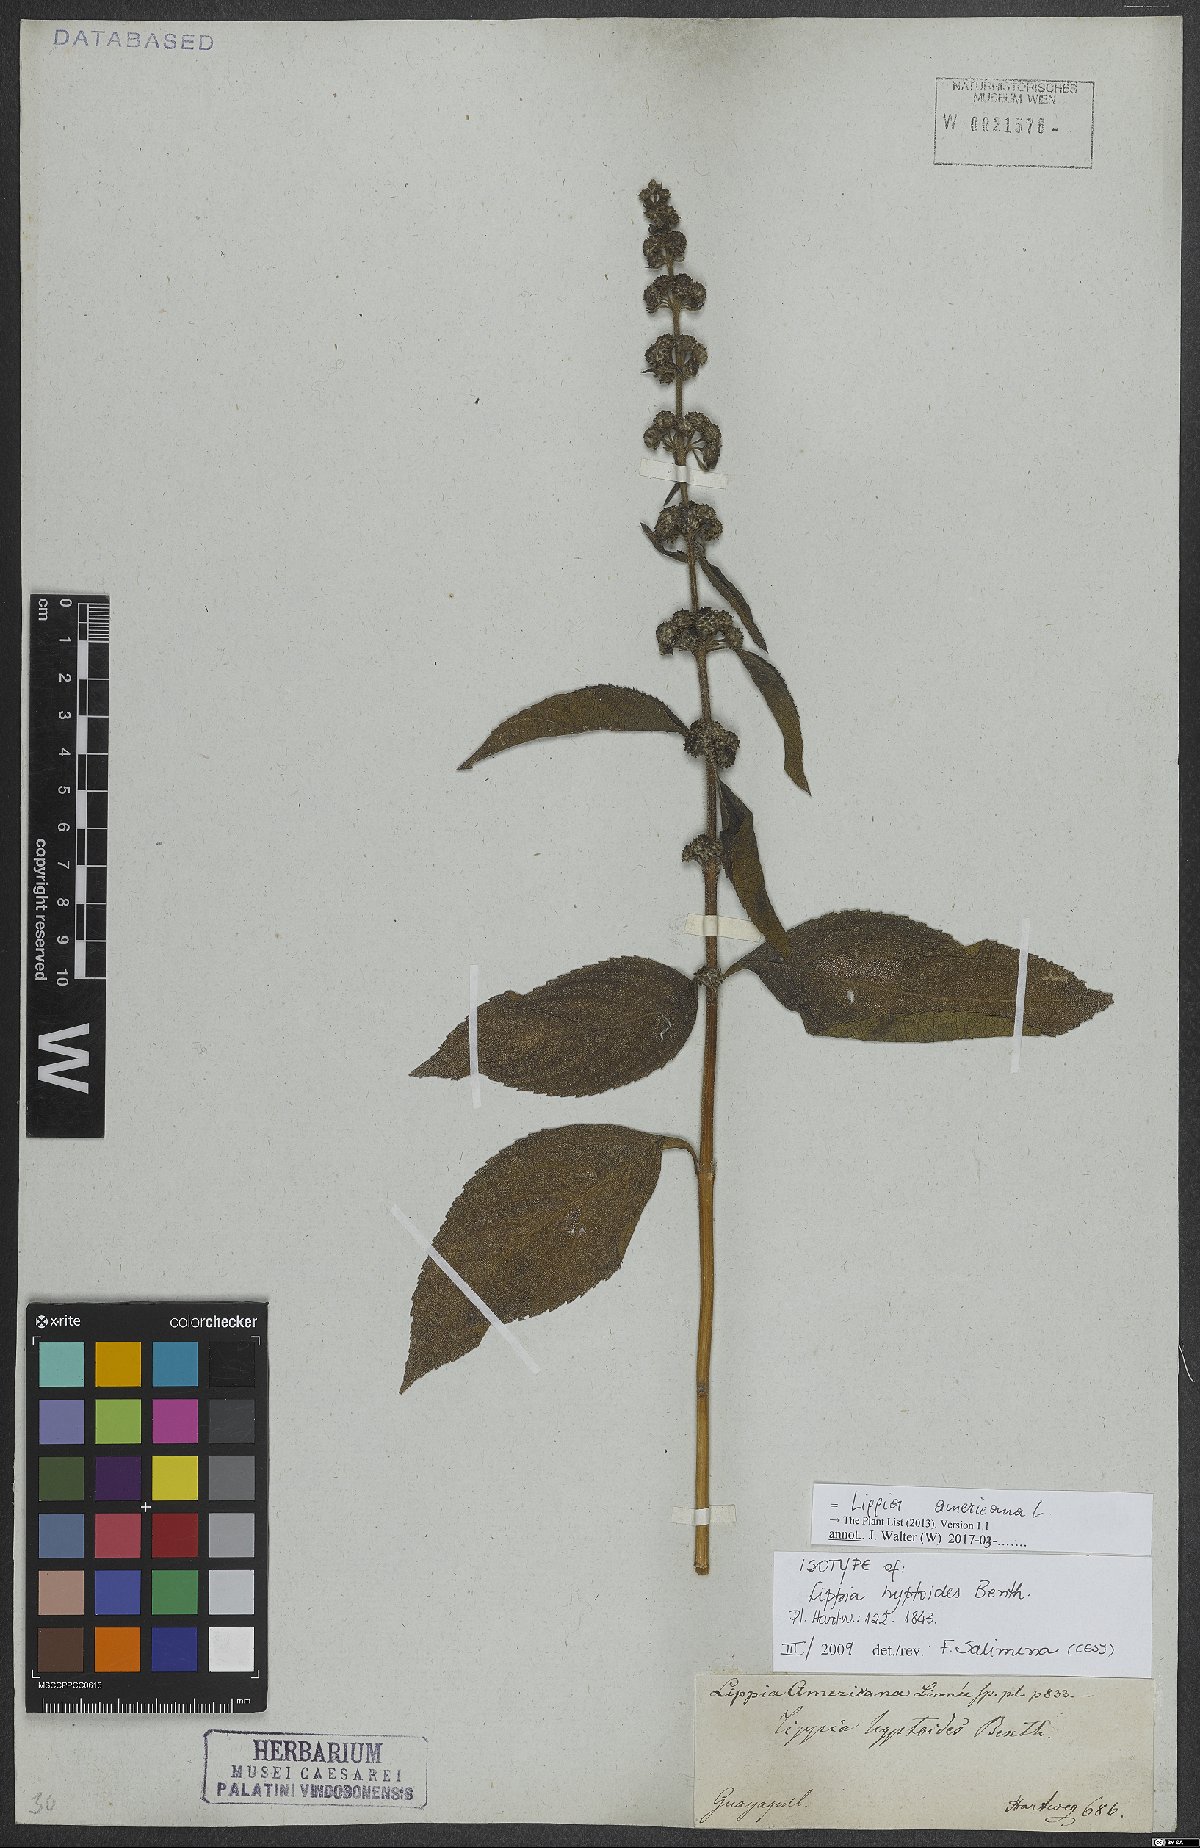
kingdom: Plantae
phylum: Tracheophyta
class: Magnoliopsida
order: Lamiales
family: Verbenaceae
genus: Lippia
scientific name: Lippia americana
